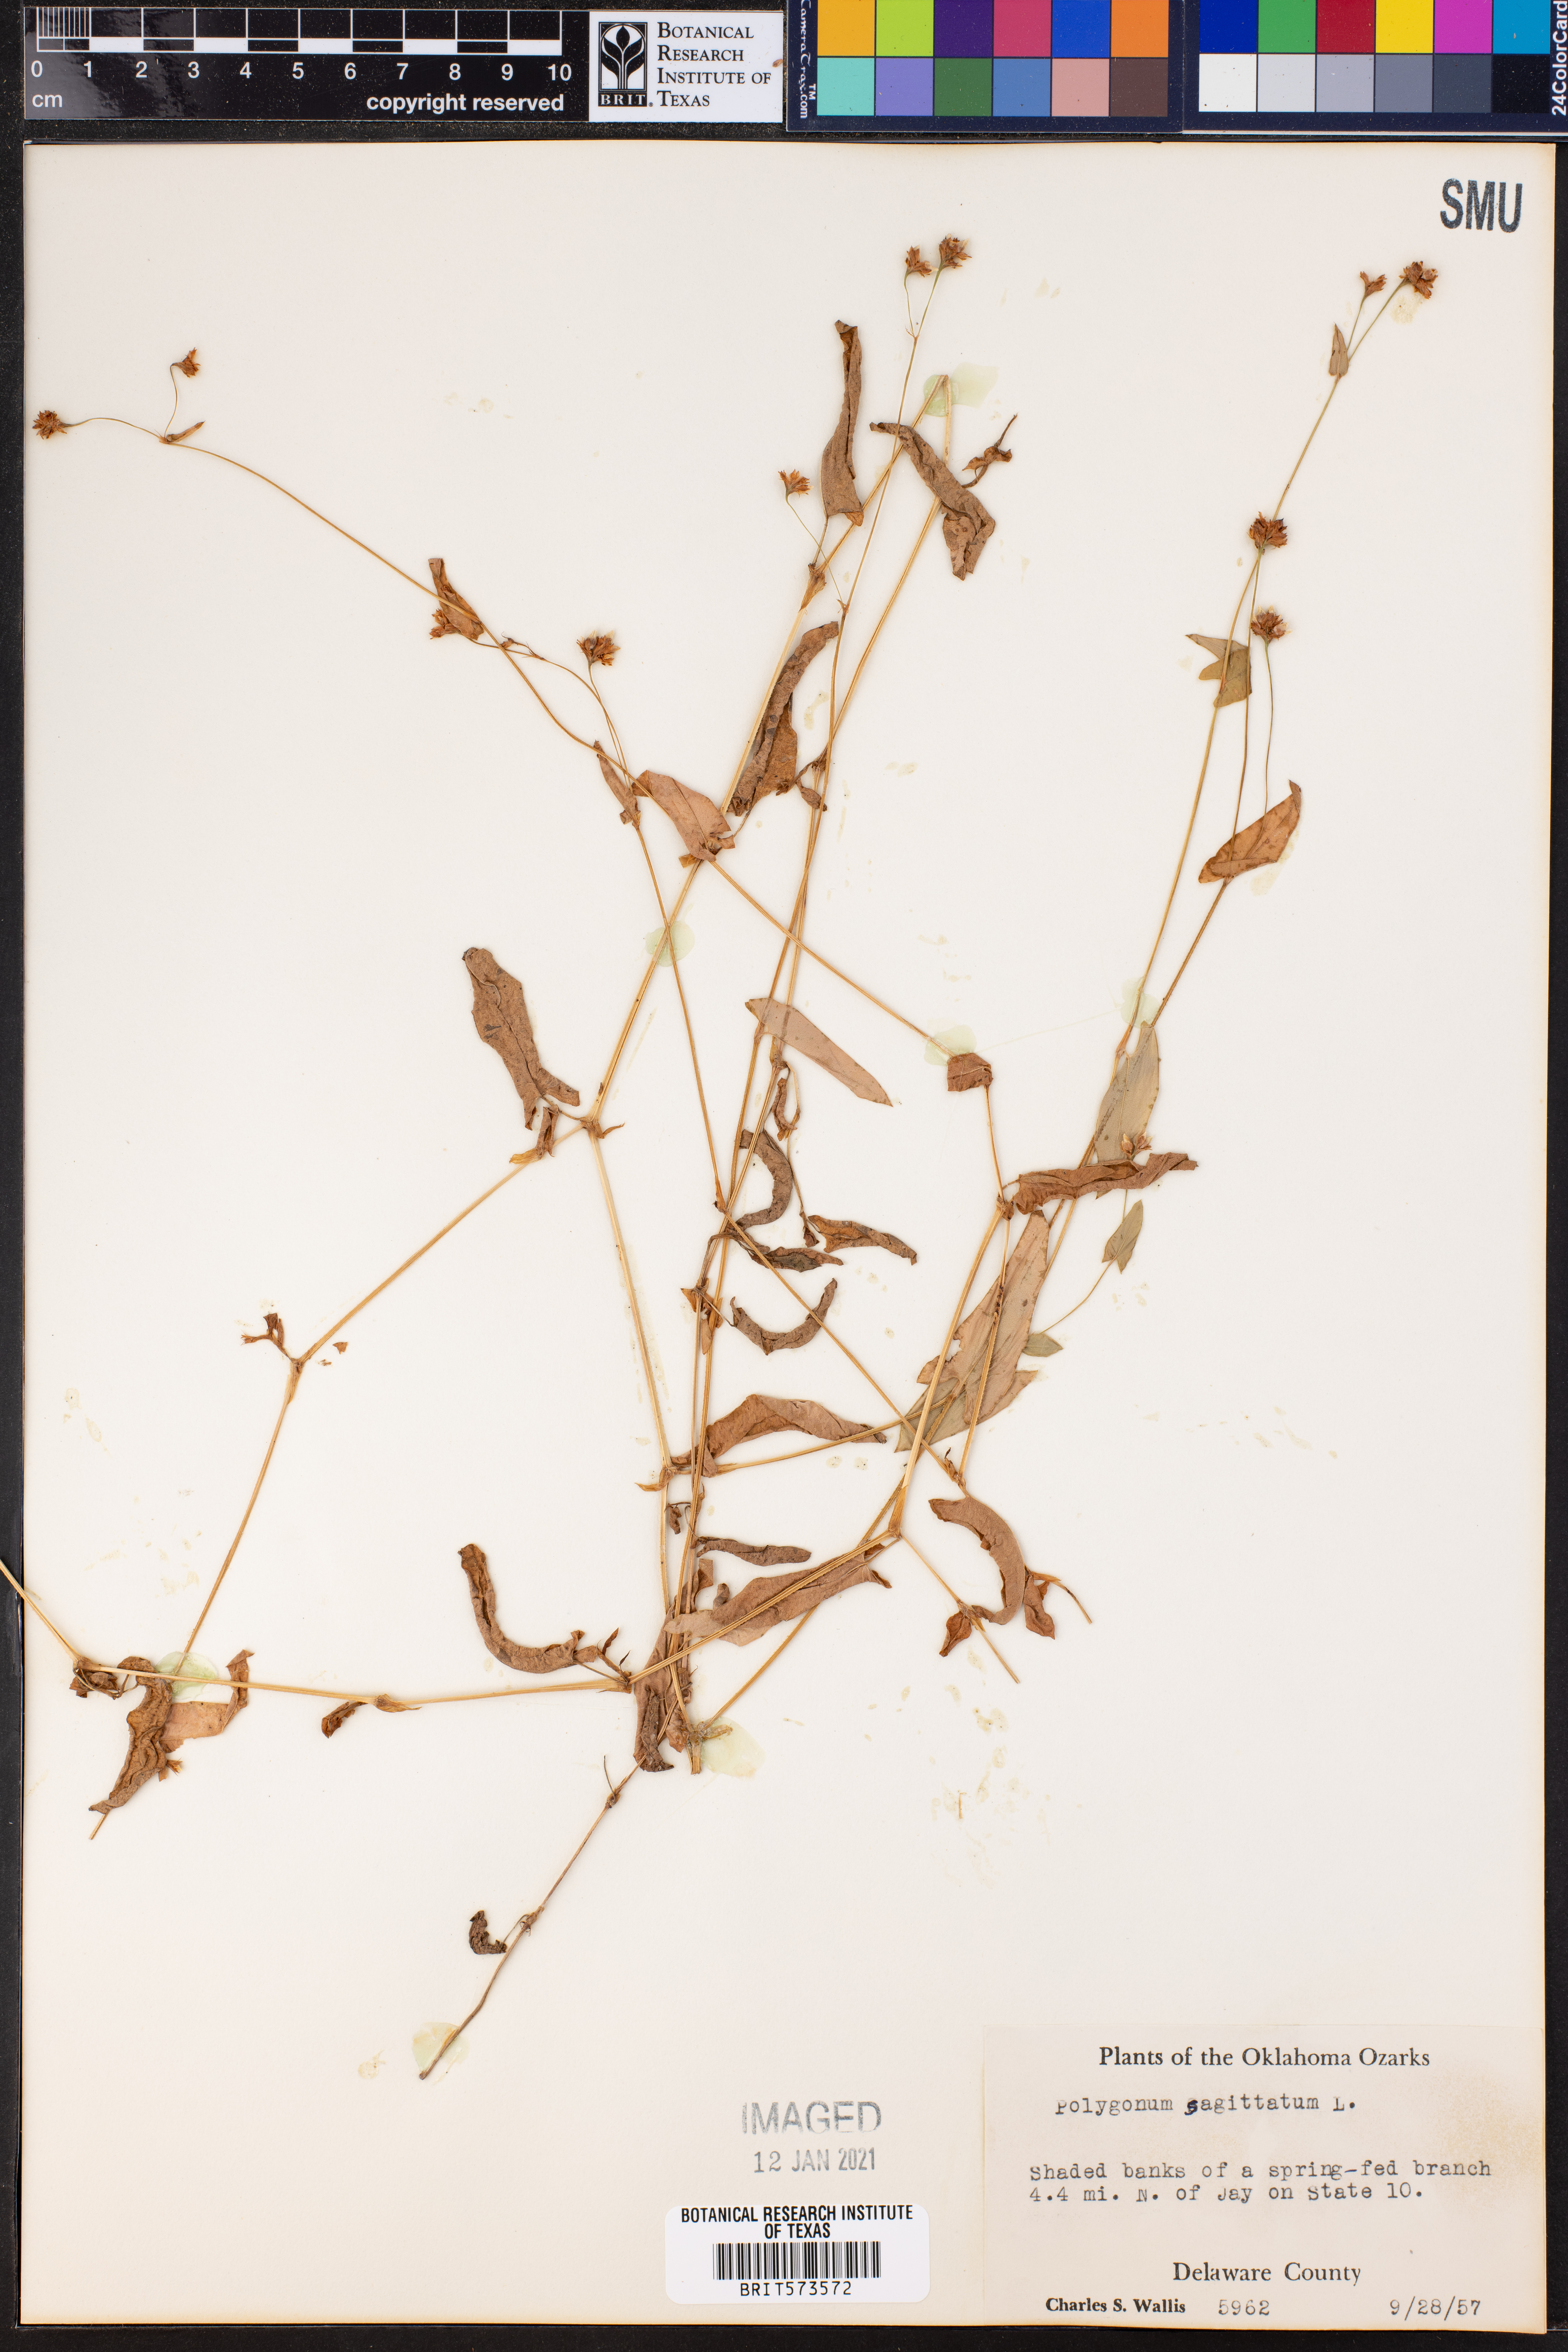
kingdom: Plantae
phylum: Tracheophyta
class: Magnoliopsida
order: Caryophyllales
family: Polygonaceae
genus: Persicaria
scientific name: Persicaria sagittata
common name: American tearthumb
